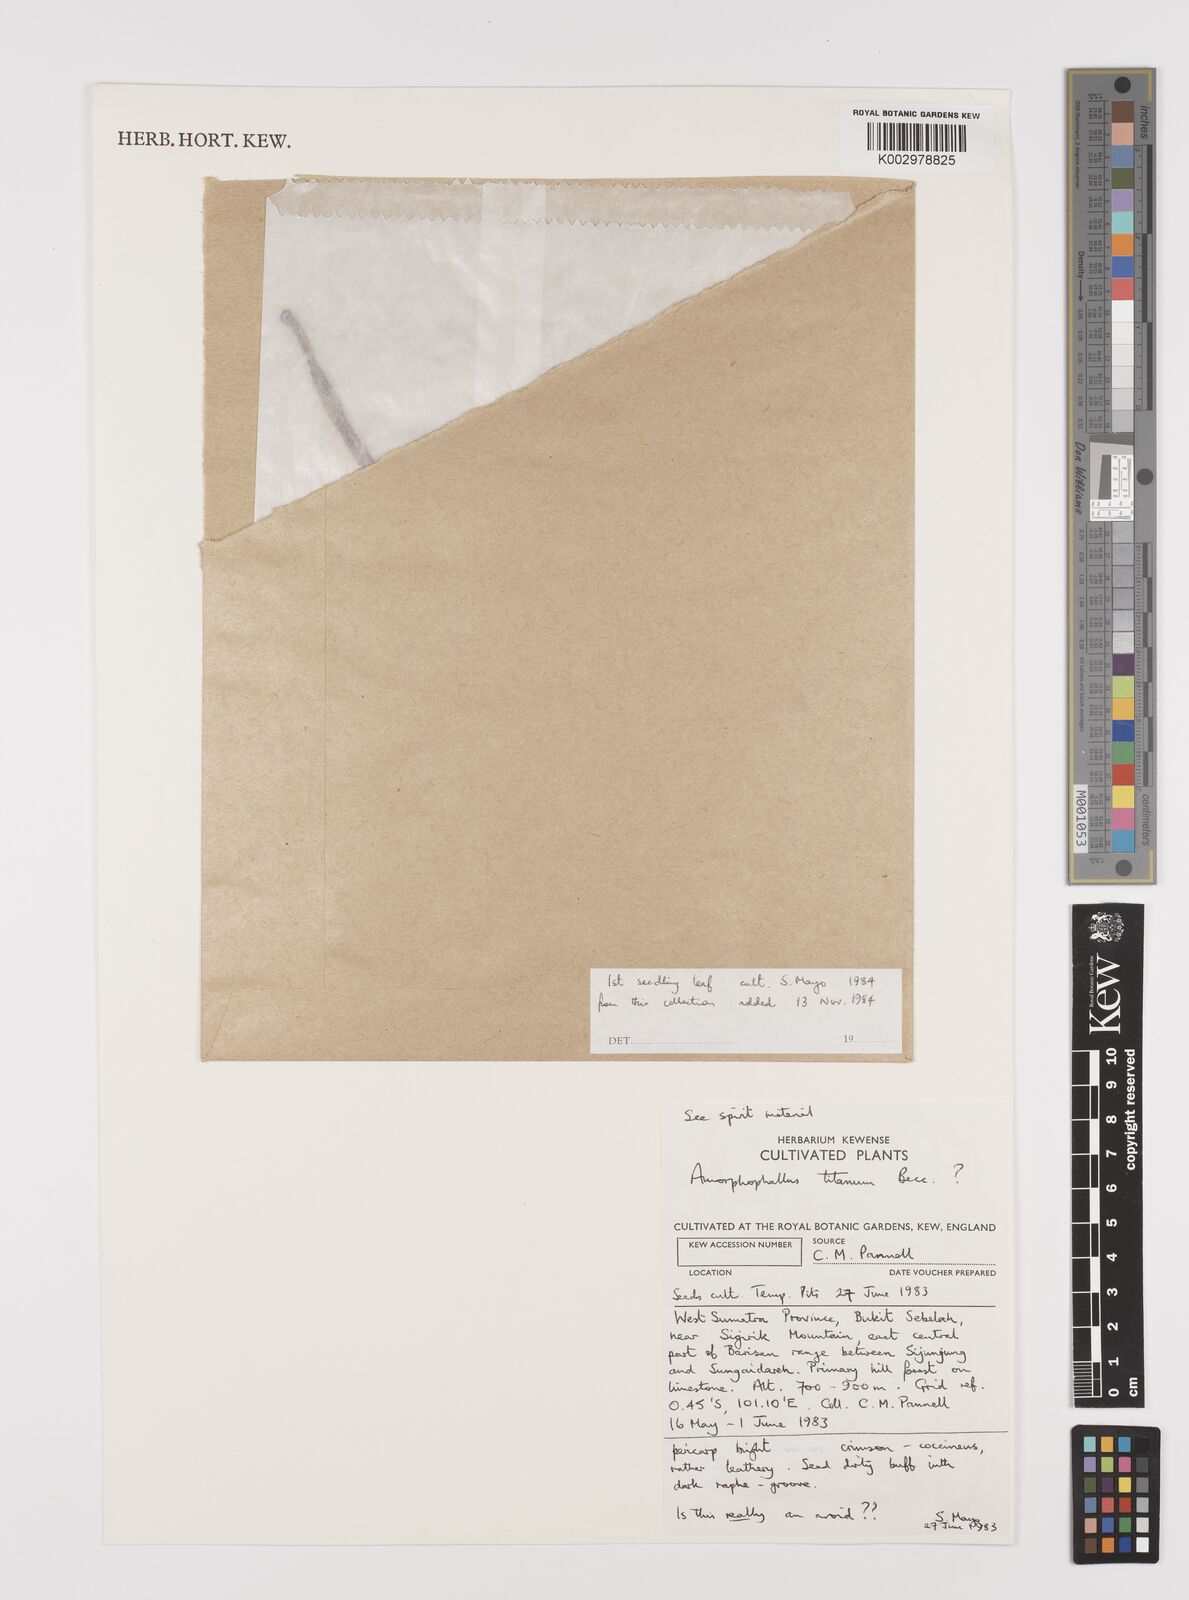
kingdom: Plantae
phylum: Tracheophyta
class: Liliopsida
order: Alismatales
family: Araceae
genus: Amorphophallus
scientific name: Amorphophallus
